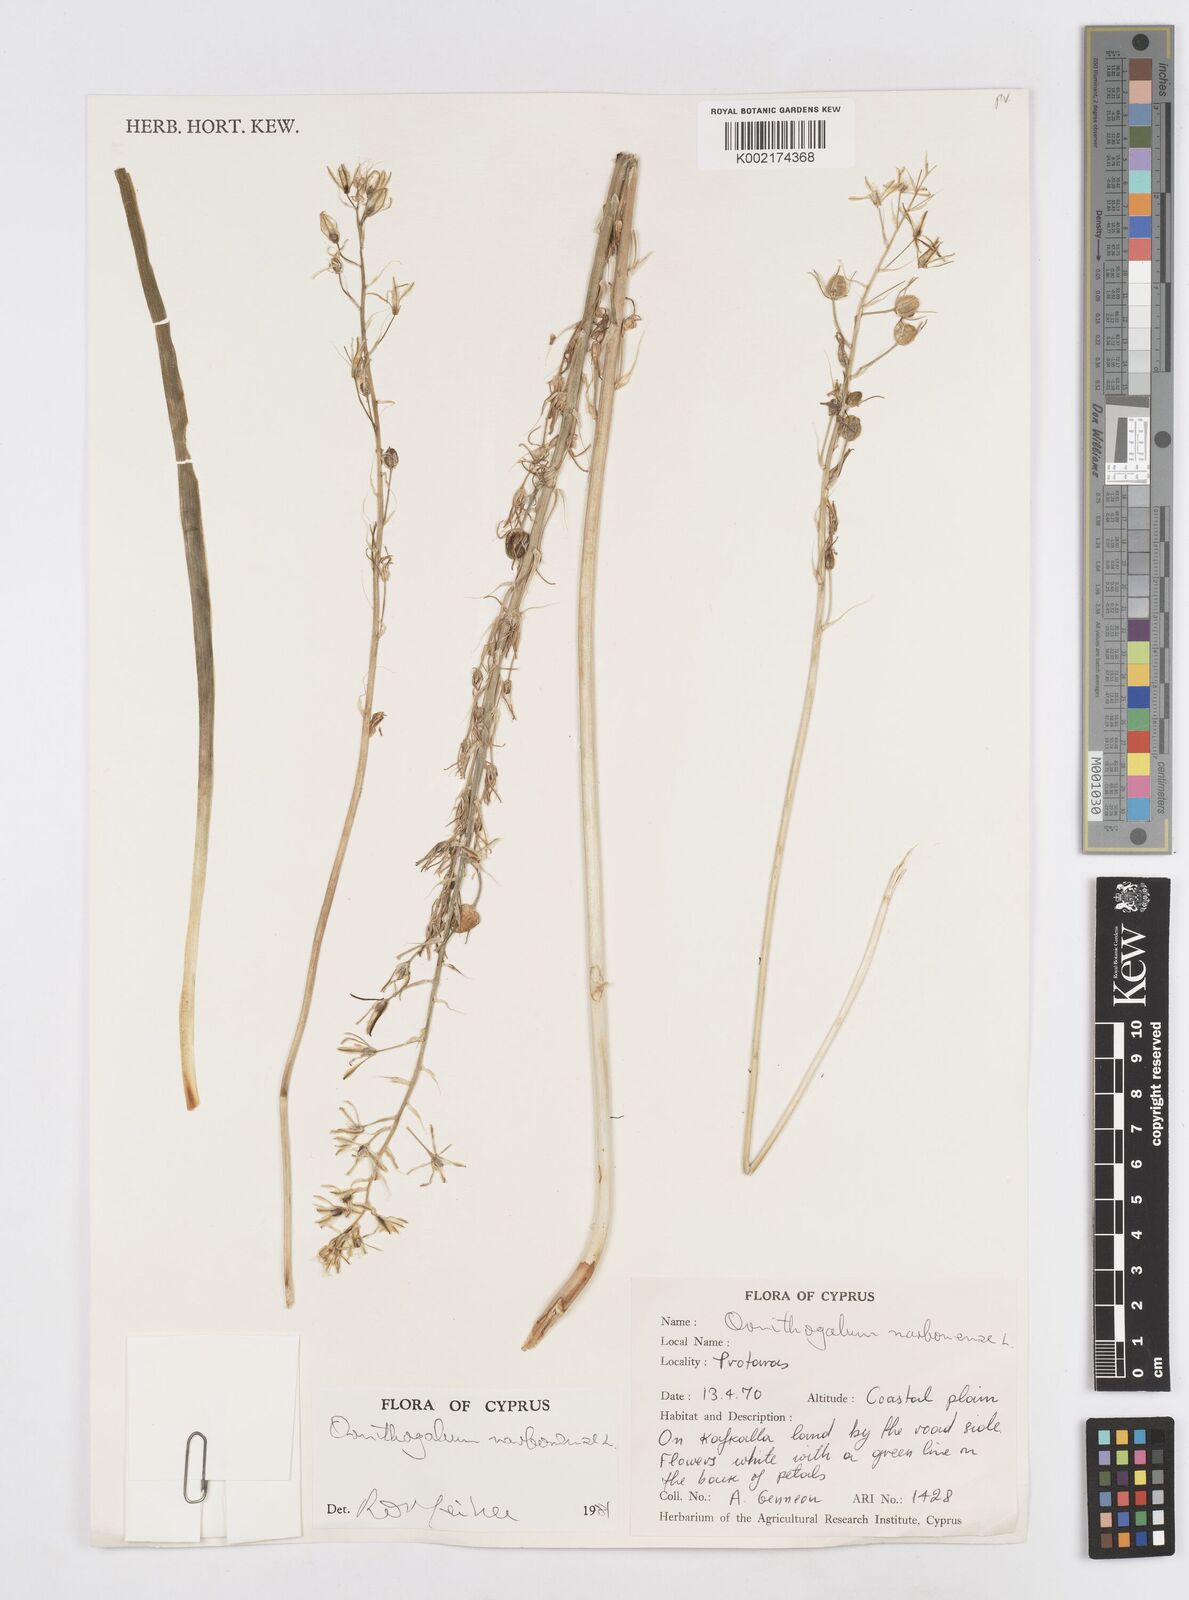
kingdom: Plantae
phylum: Tracheophyta
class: Liliopsida
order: Asparagales
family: Asparagaceae
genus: Ornithogalum
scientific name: Ornithogalum narbonense
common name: Bath-asparagus
